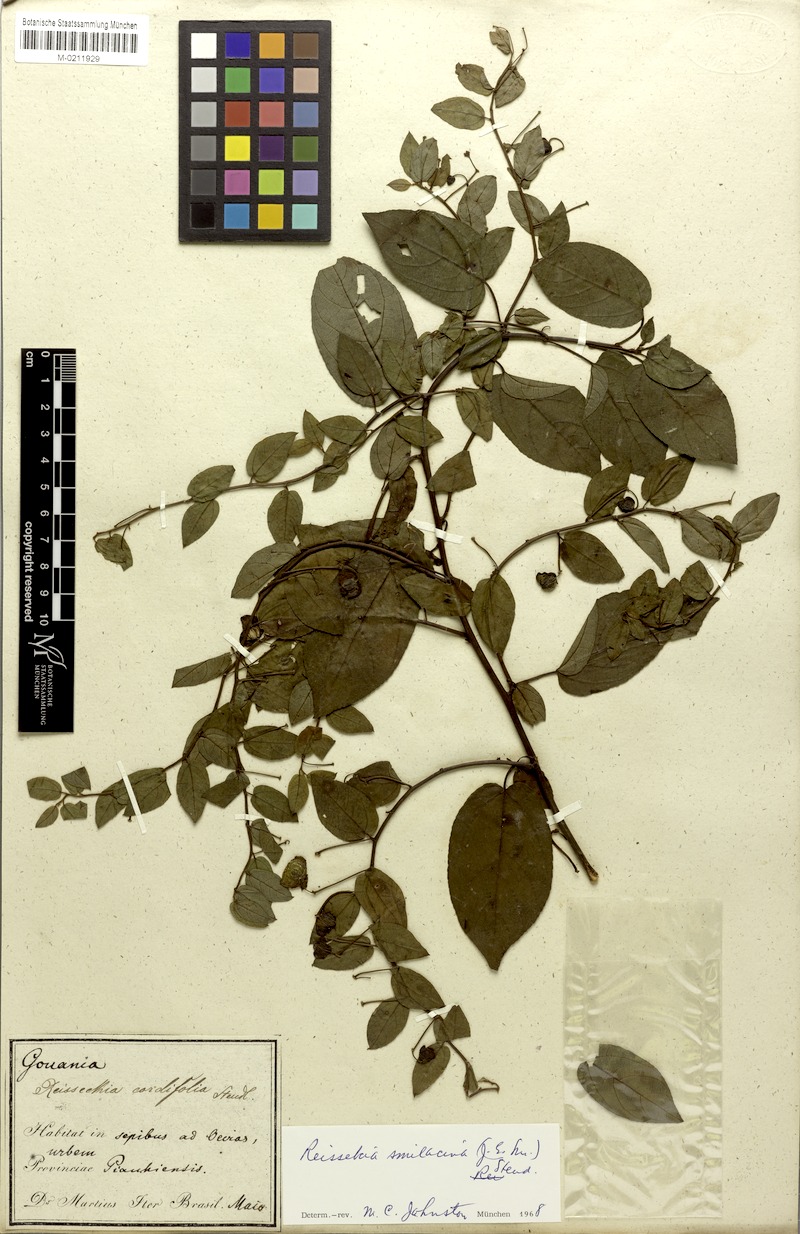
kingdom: Plantae
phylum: Tracheophyta
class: Magnoliopsida
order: Rosales
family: Rhamnaceae
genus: Reissekia
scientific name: Reissekia smilacina
